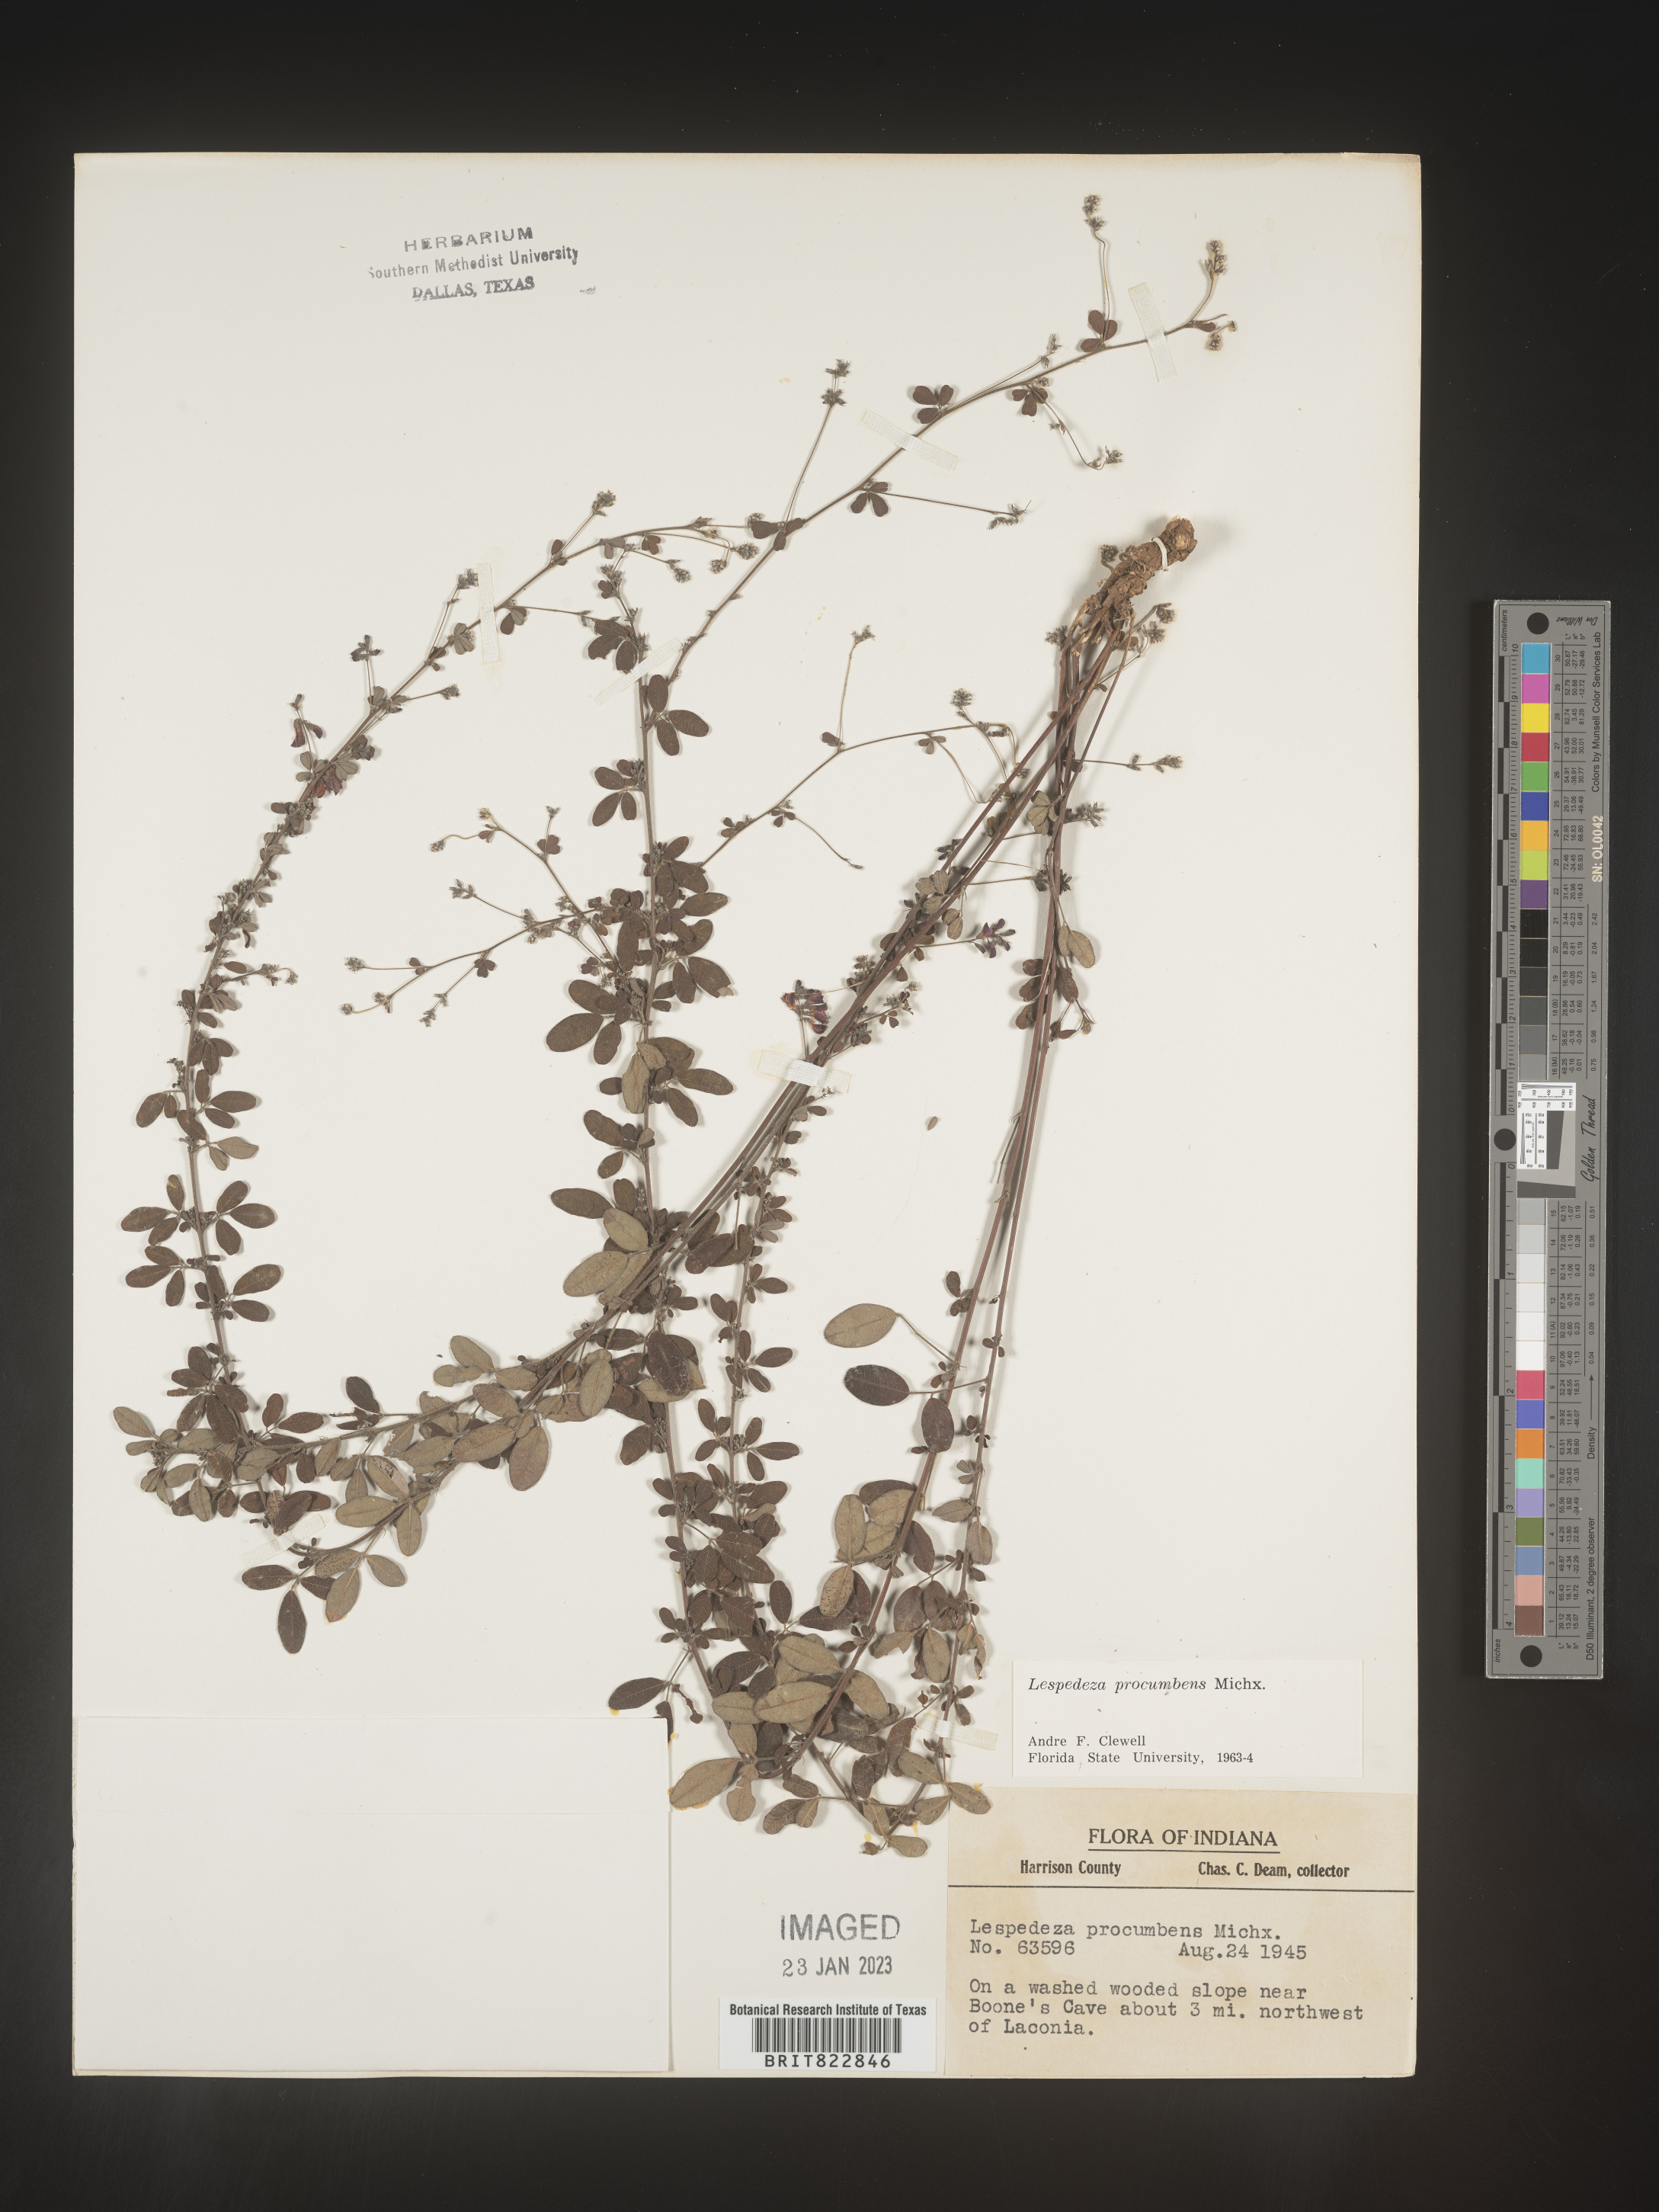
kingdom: Plantae
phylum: Tracheophyta
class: Magnoliopsida
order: Fabales
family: Fabaceae
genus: Lespedeza
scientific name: Lespedeza procumbens
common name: Downy trailing bush-clover
